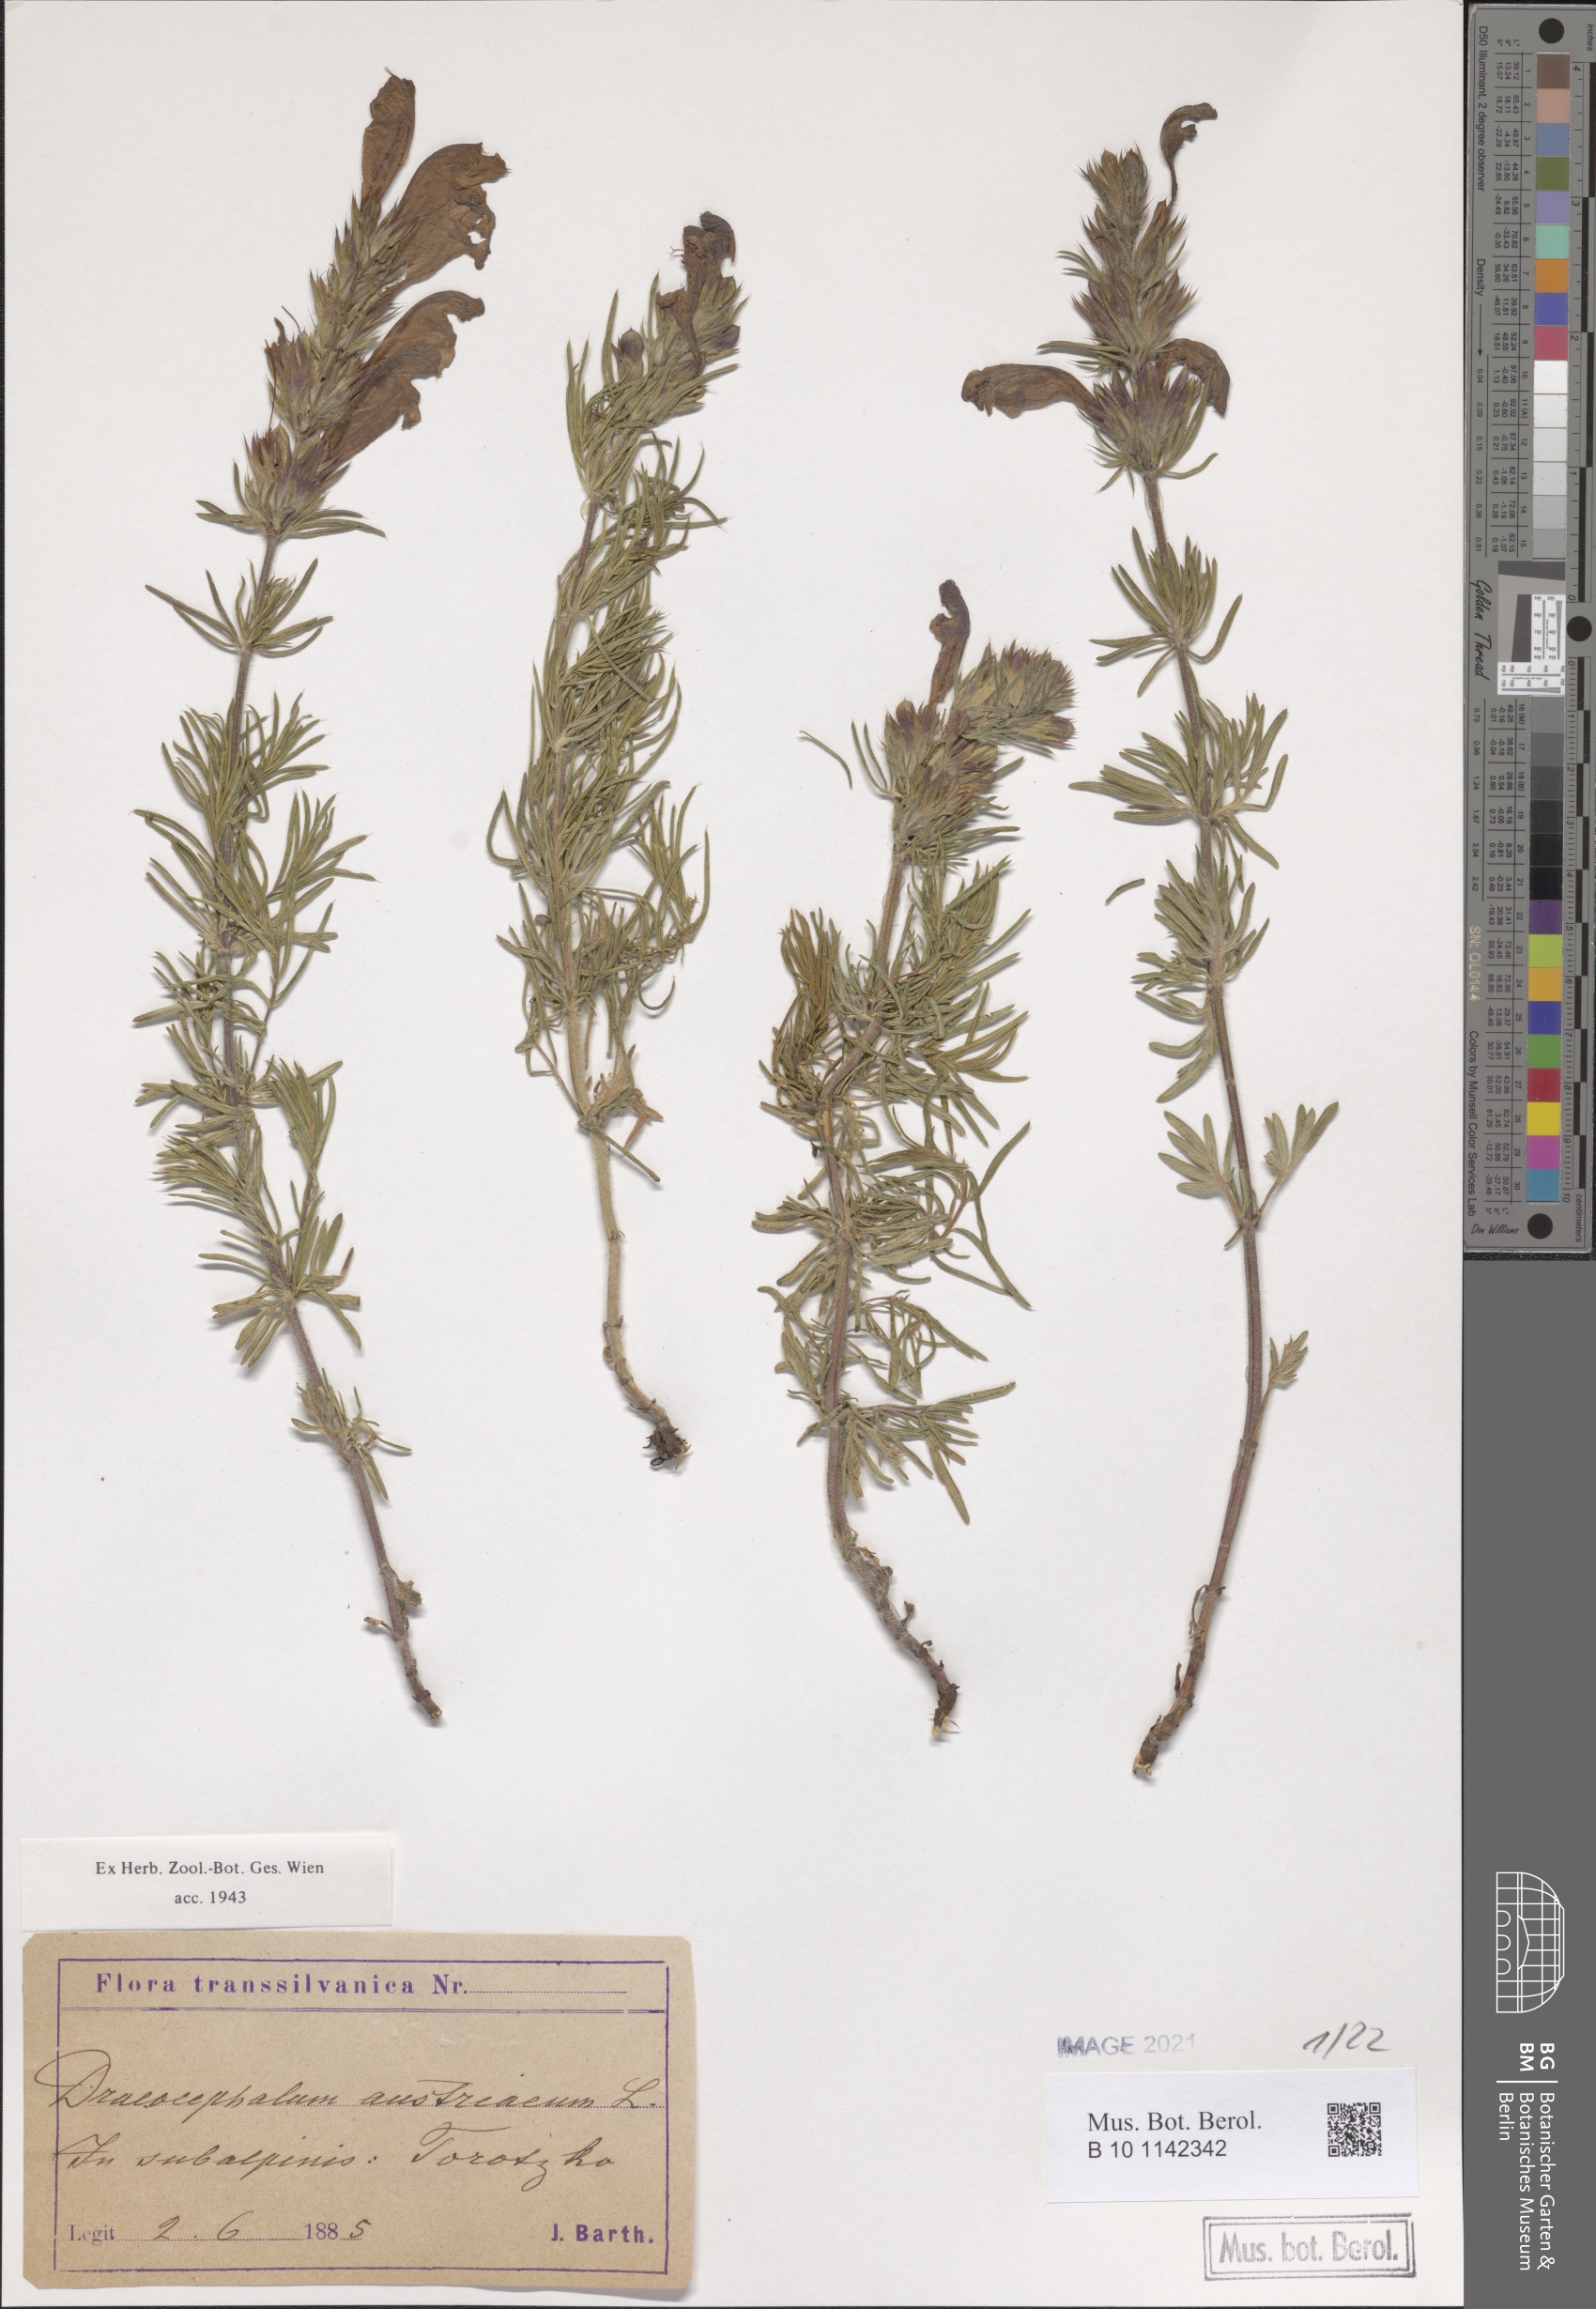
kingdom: Plantae
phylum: Tracheophyta
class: Magnoliopsida
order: Lamiales
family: Lamiaceae
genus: Dracocephalum
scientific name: Dracocephalum austriacum
